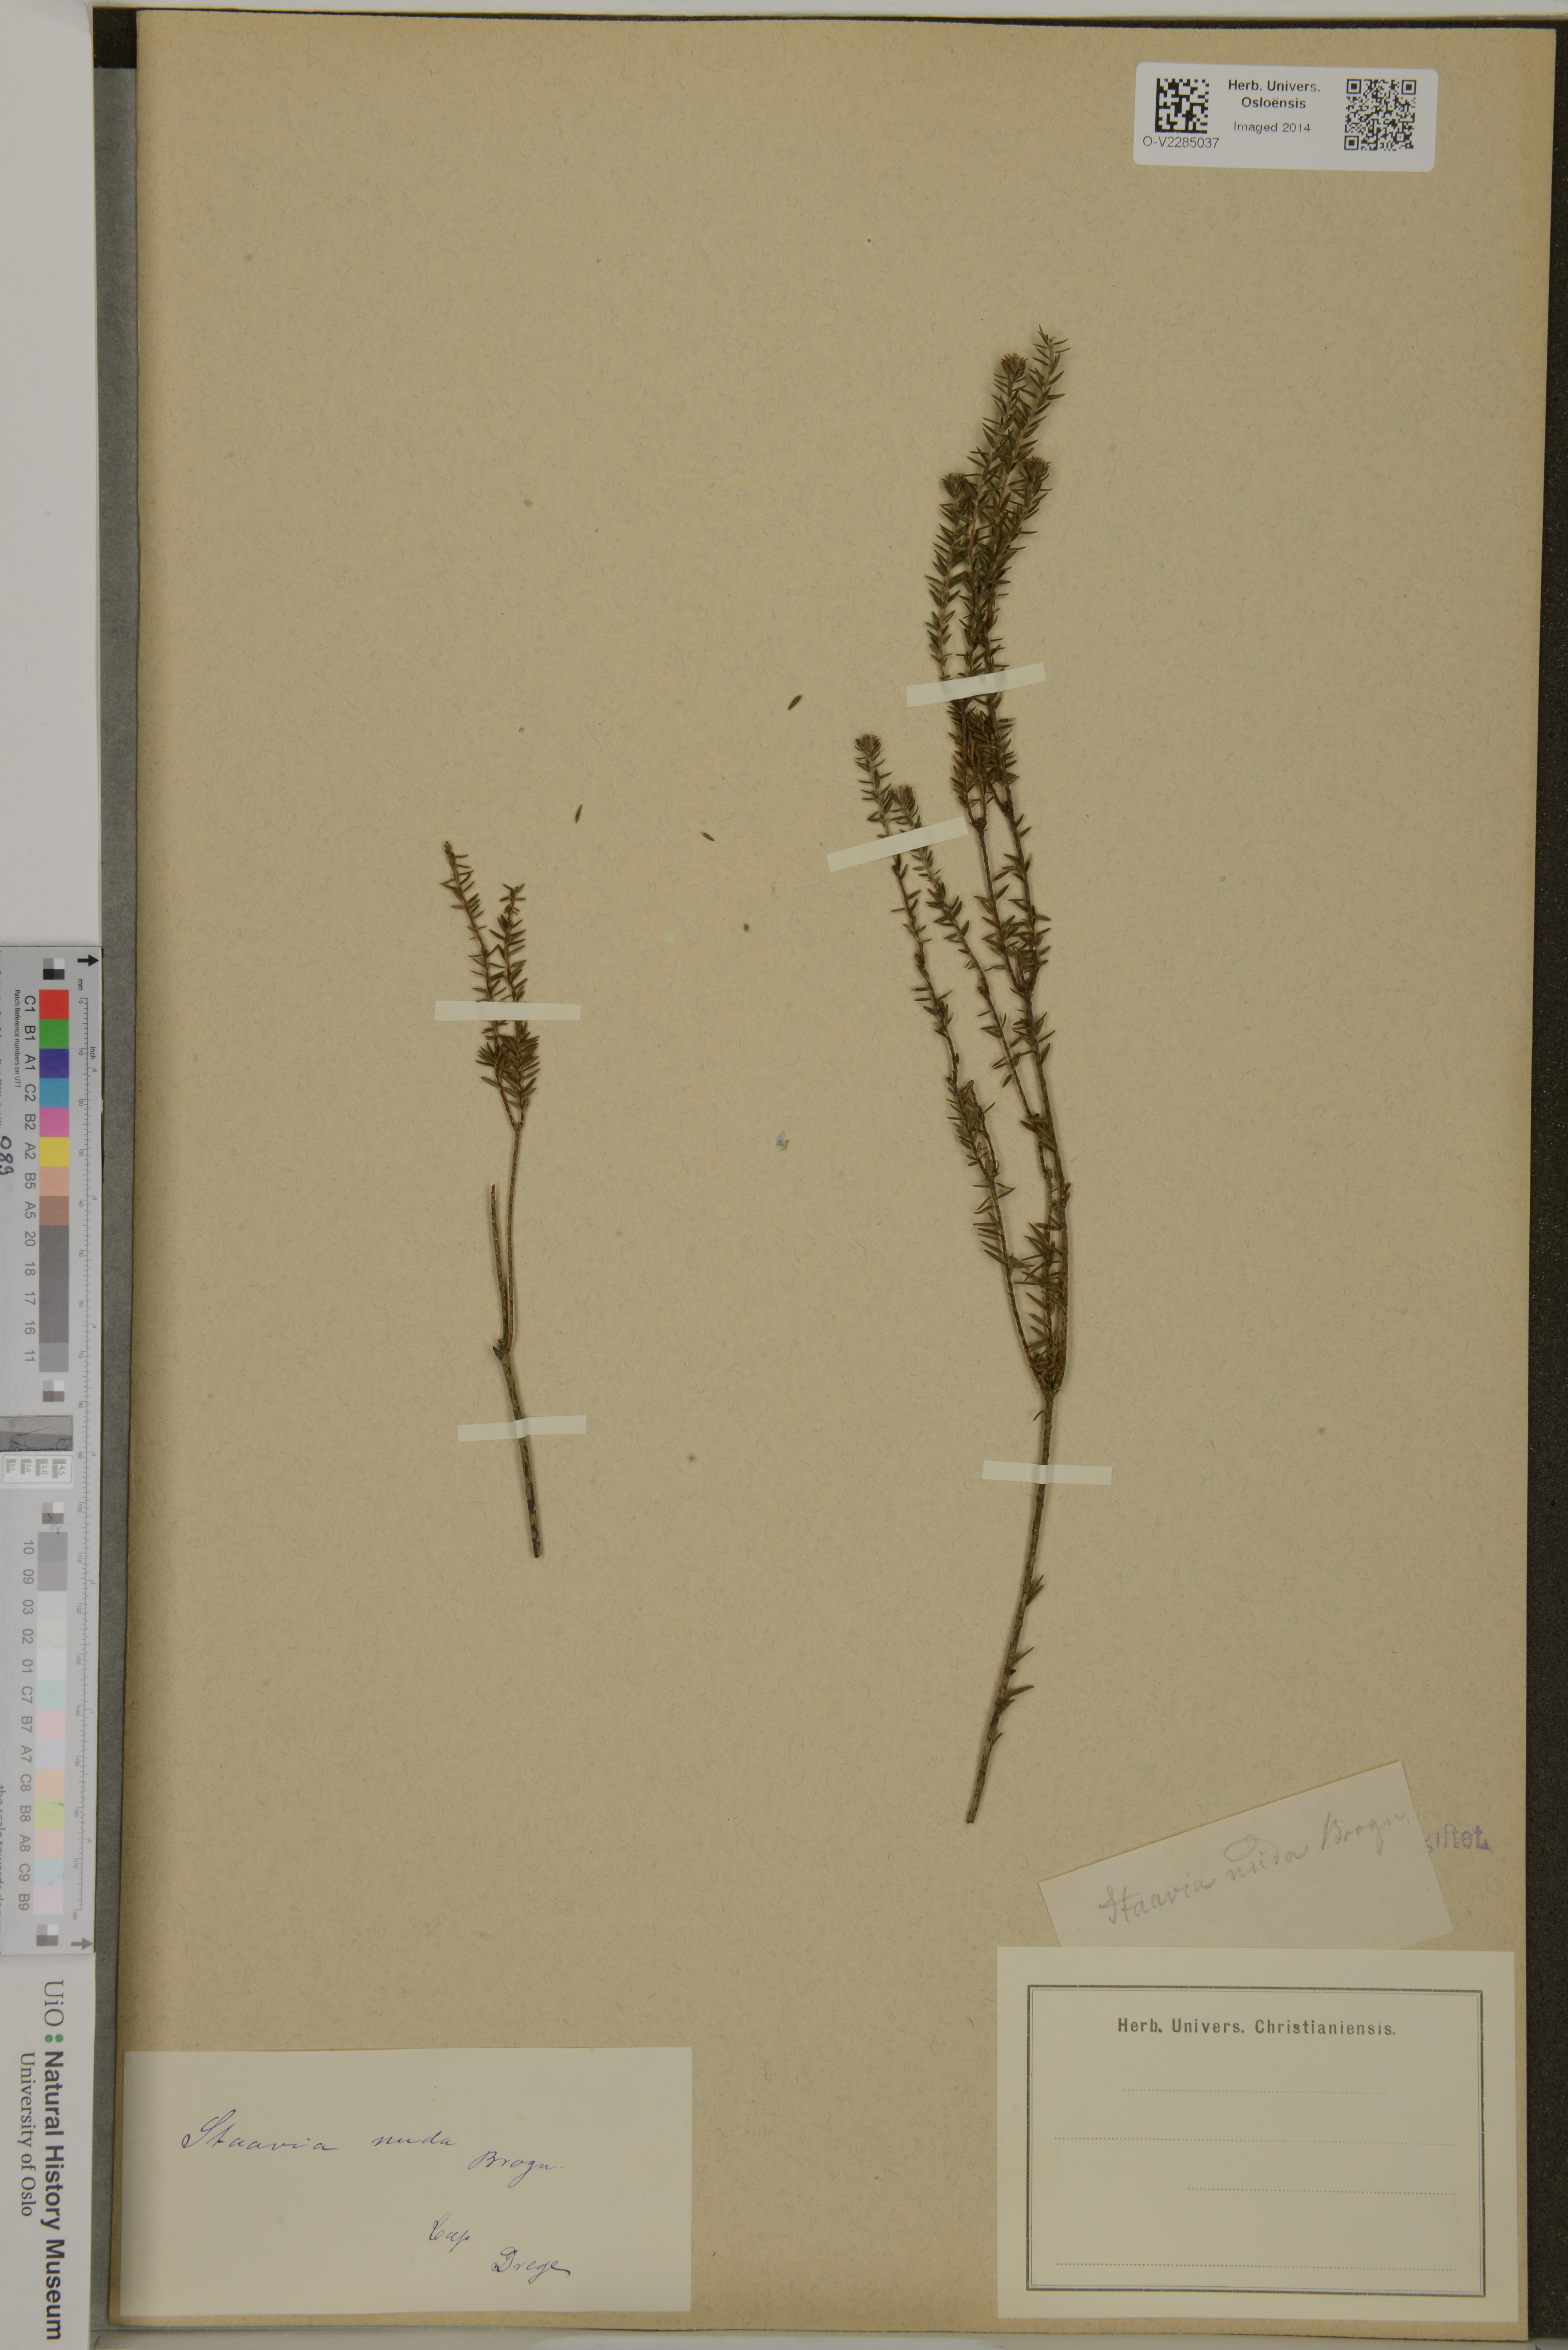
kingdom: Plantae
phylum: Tracheophyta
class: Magnoliopsida
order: Bruniales
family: Bruniaceae
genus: Staavia
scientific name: Staavia
